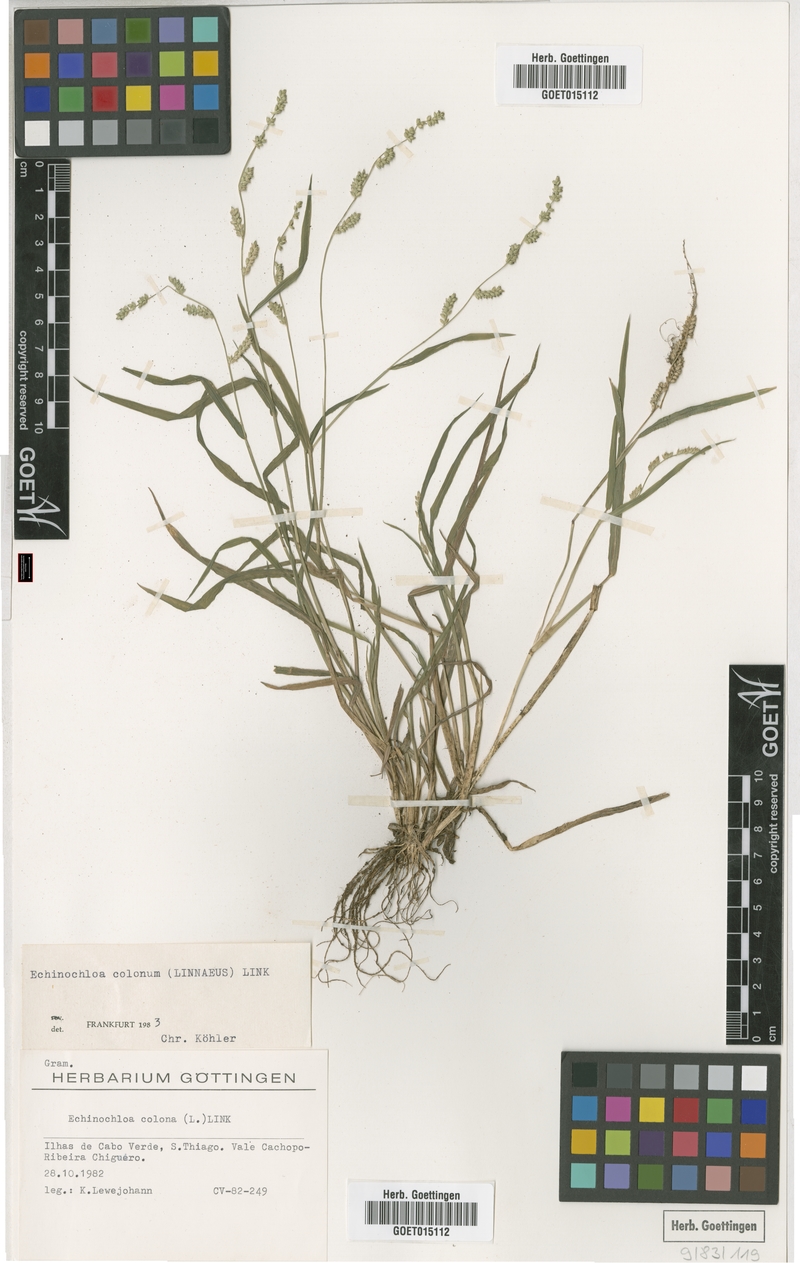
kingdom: Plantae
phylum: Tracheophyta
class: Liliopsida
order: Poales
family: Poaceae
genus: Echinochloa
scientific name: Echinochloa colonum
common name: Jungle rice
